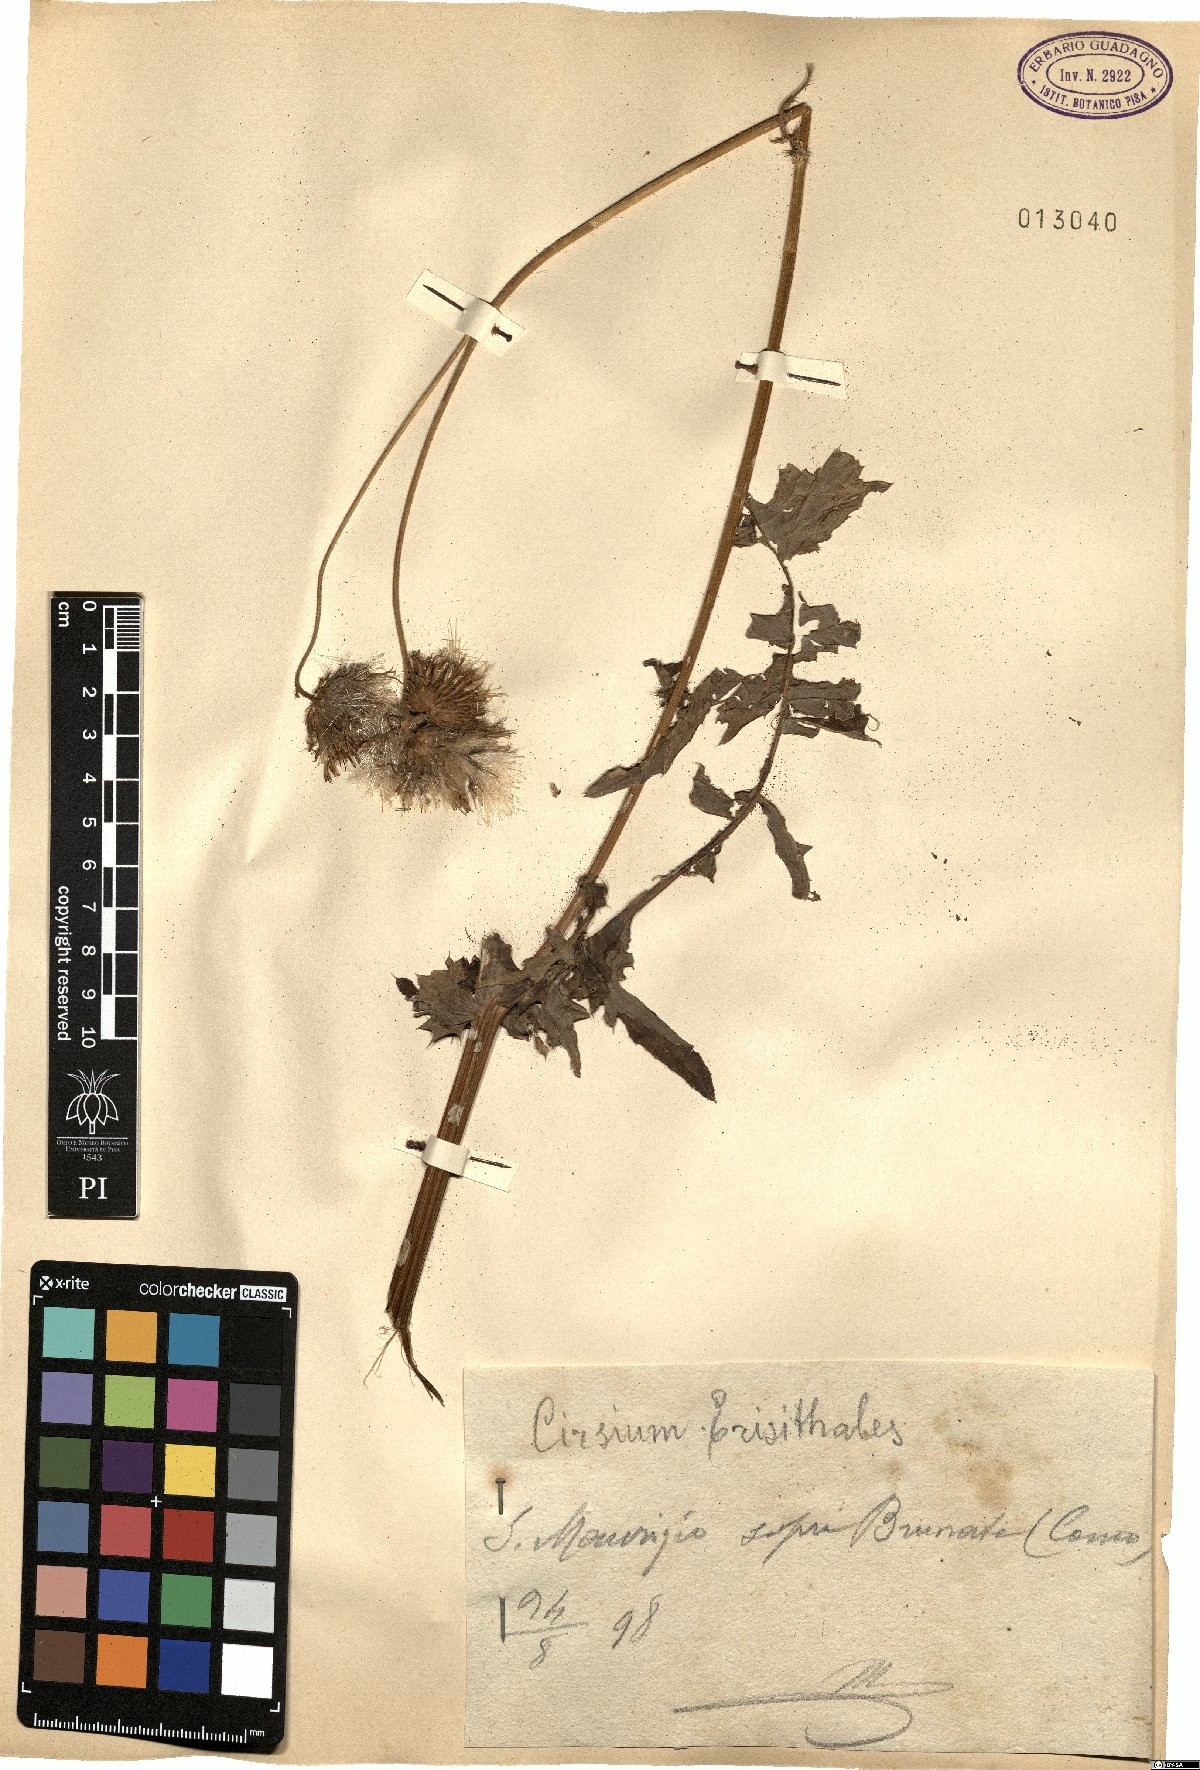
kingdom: Plantae
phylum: Tracheophyta
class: Magnoliopsida
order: Asterales
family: Asteraceae
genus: Cirsium
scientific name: Cirsium erisithales
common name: Yellow thistle
